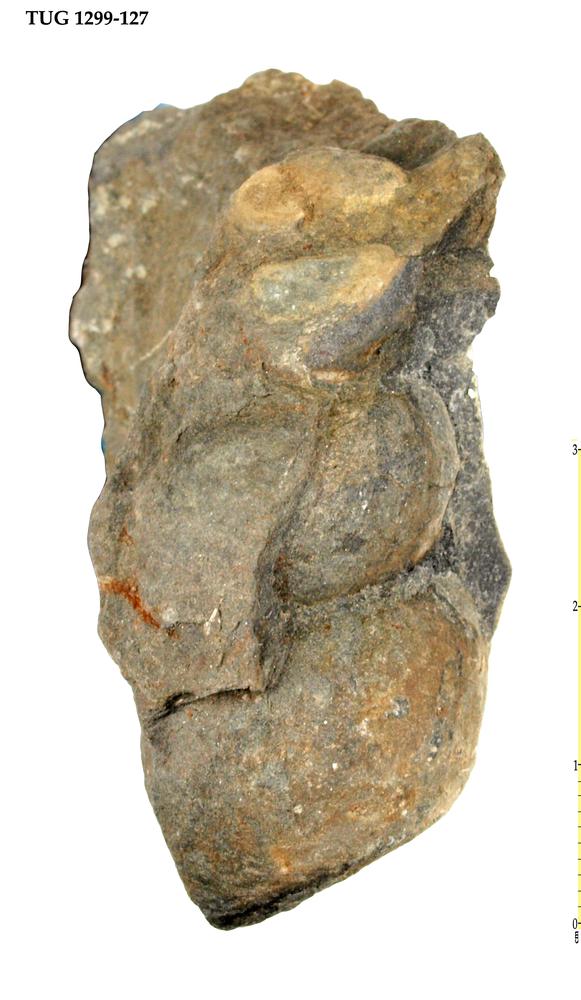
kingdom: Animalia
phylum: Mollusca
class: Gastropoda
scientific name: Gastropoda
